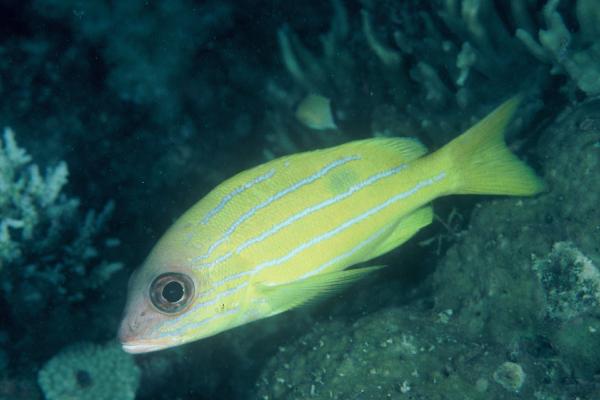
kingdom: Animalia
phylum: Chordata
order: Perciformes
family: Lutjanidae
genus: Lutjanus
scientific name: Lutjanus quinquelineatus
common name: Five-lined snapper
